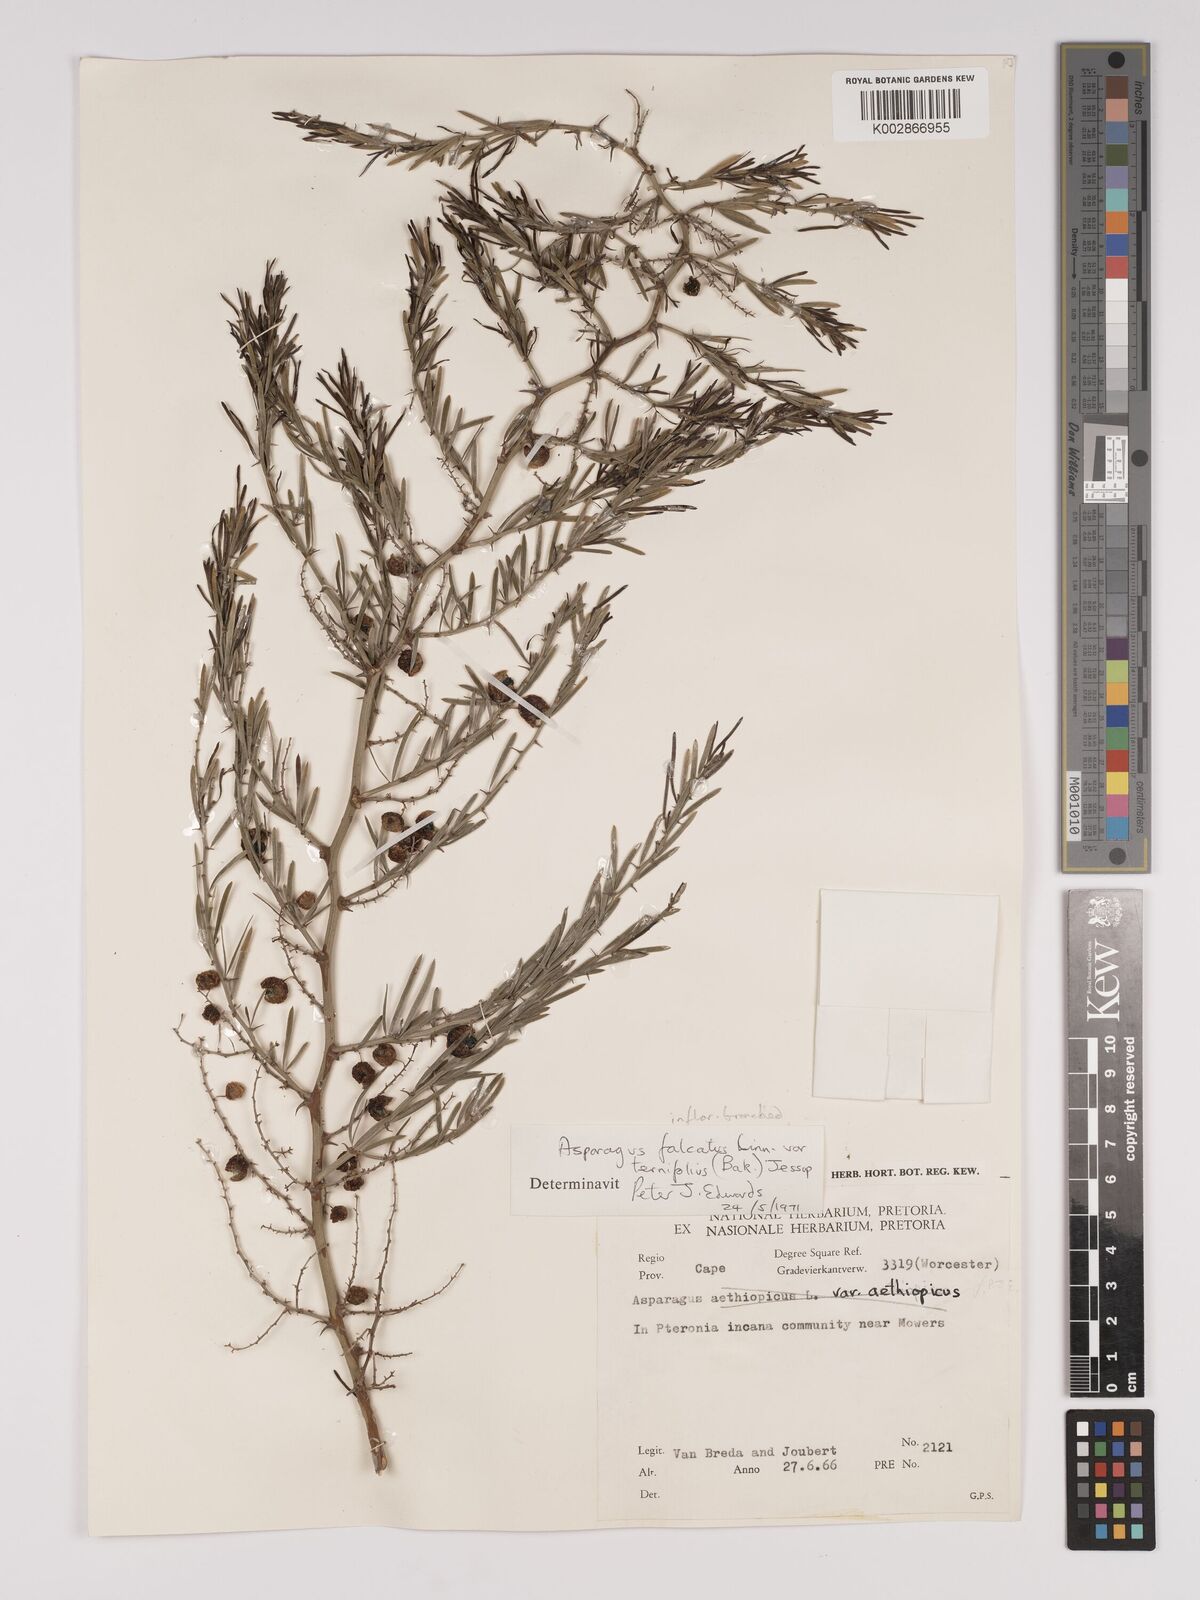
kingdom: Plantae
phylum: Tracheophyta
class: Liliopsida
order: Asparagales
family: Asparagaceae
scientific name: Asparagaceae
